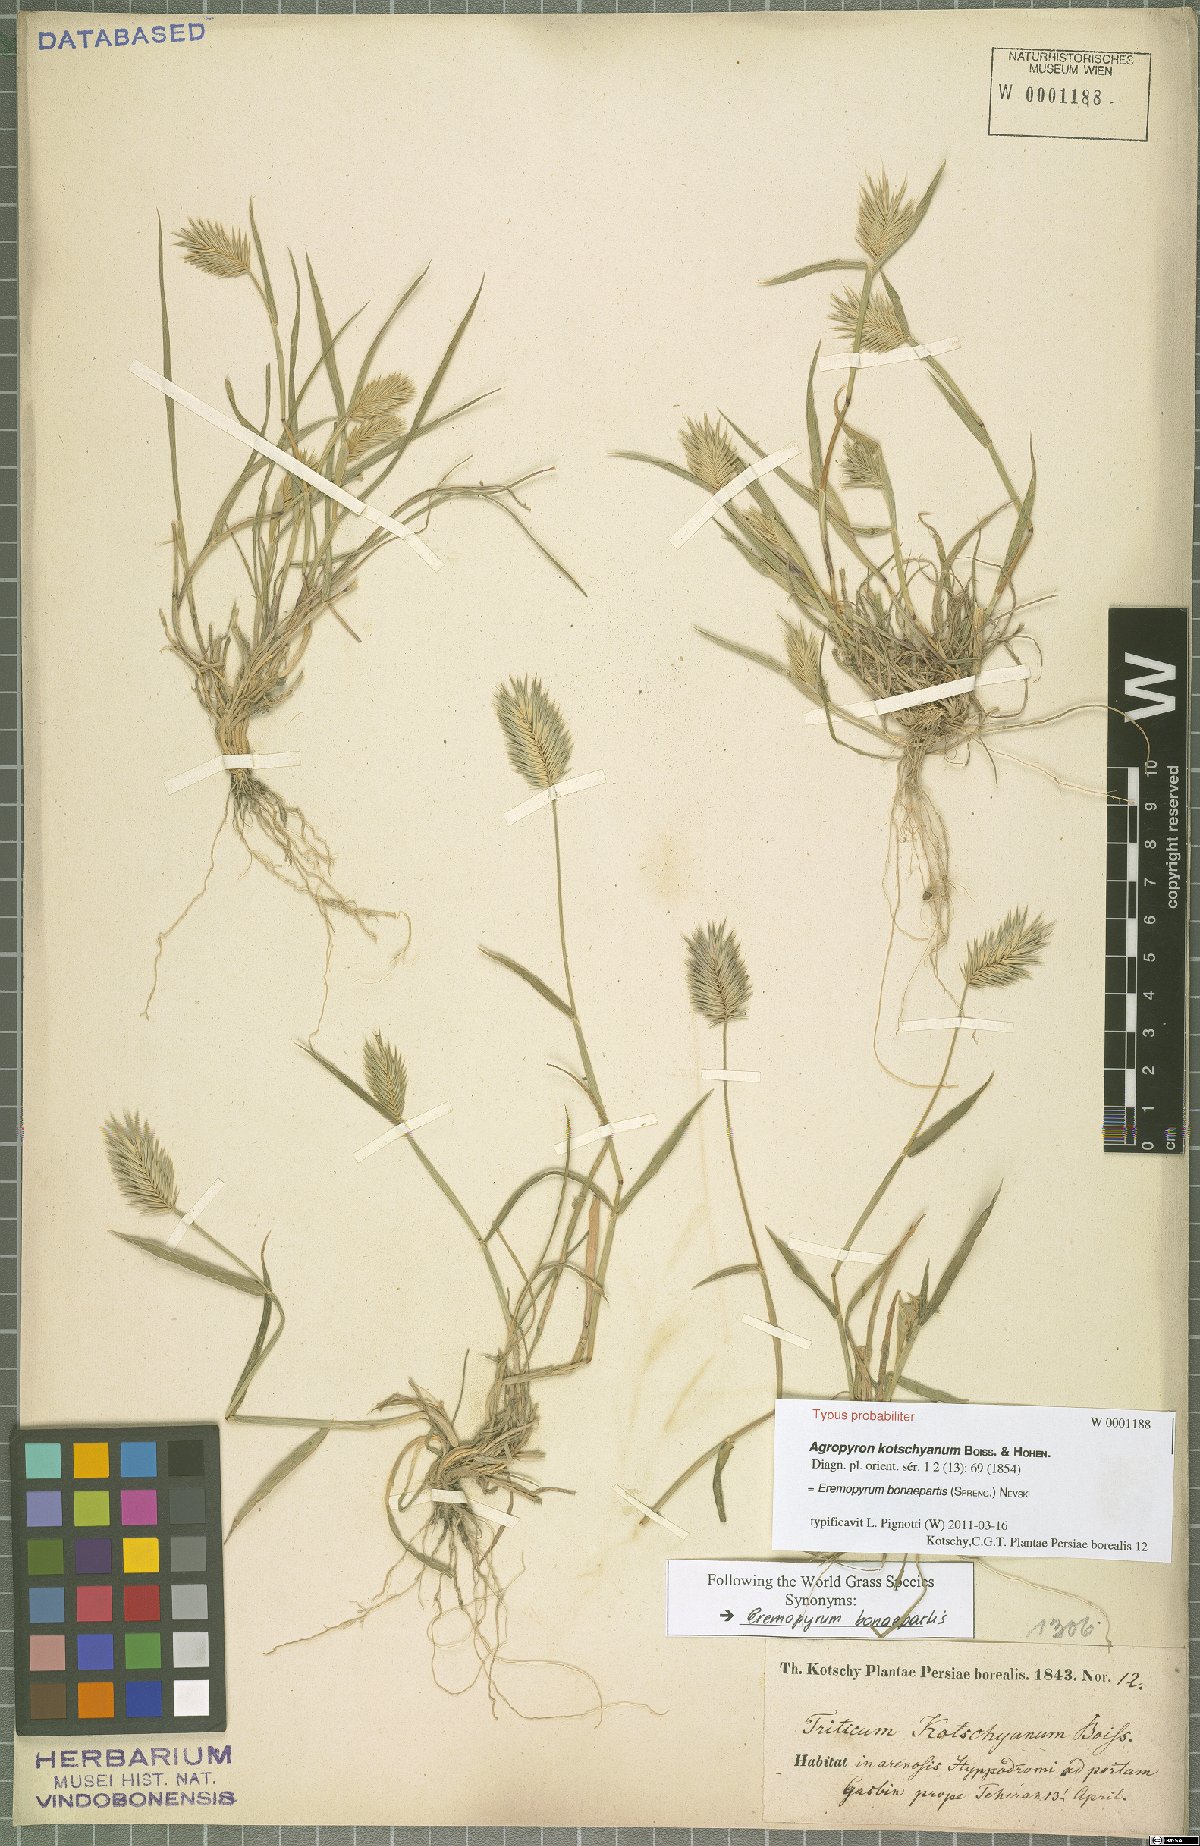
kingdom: Plantae
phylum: Tracheophyta
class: Liliopsida
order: Poales
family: Poaceae
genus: Eremopyrum
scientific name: Eremopyrum bonaepartis
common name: Tapertip false wheatgrass
